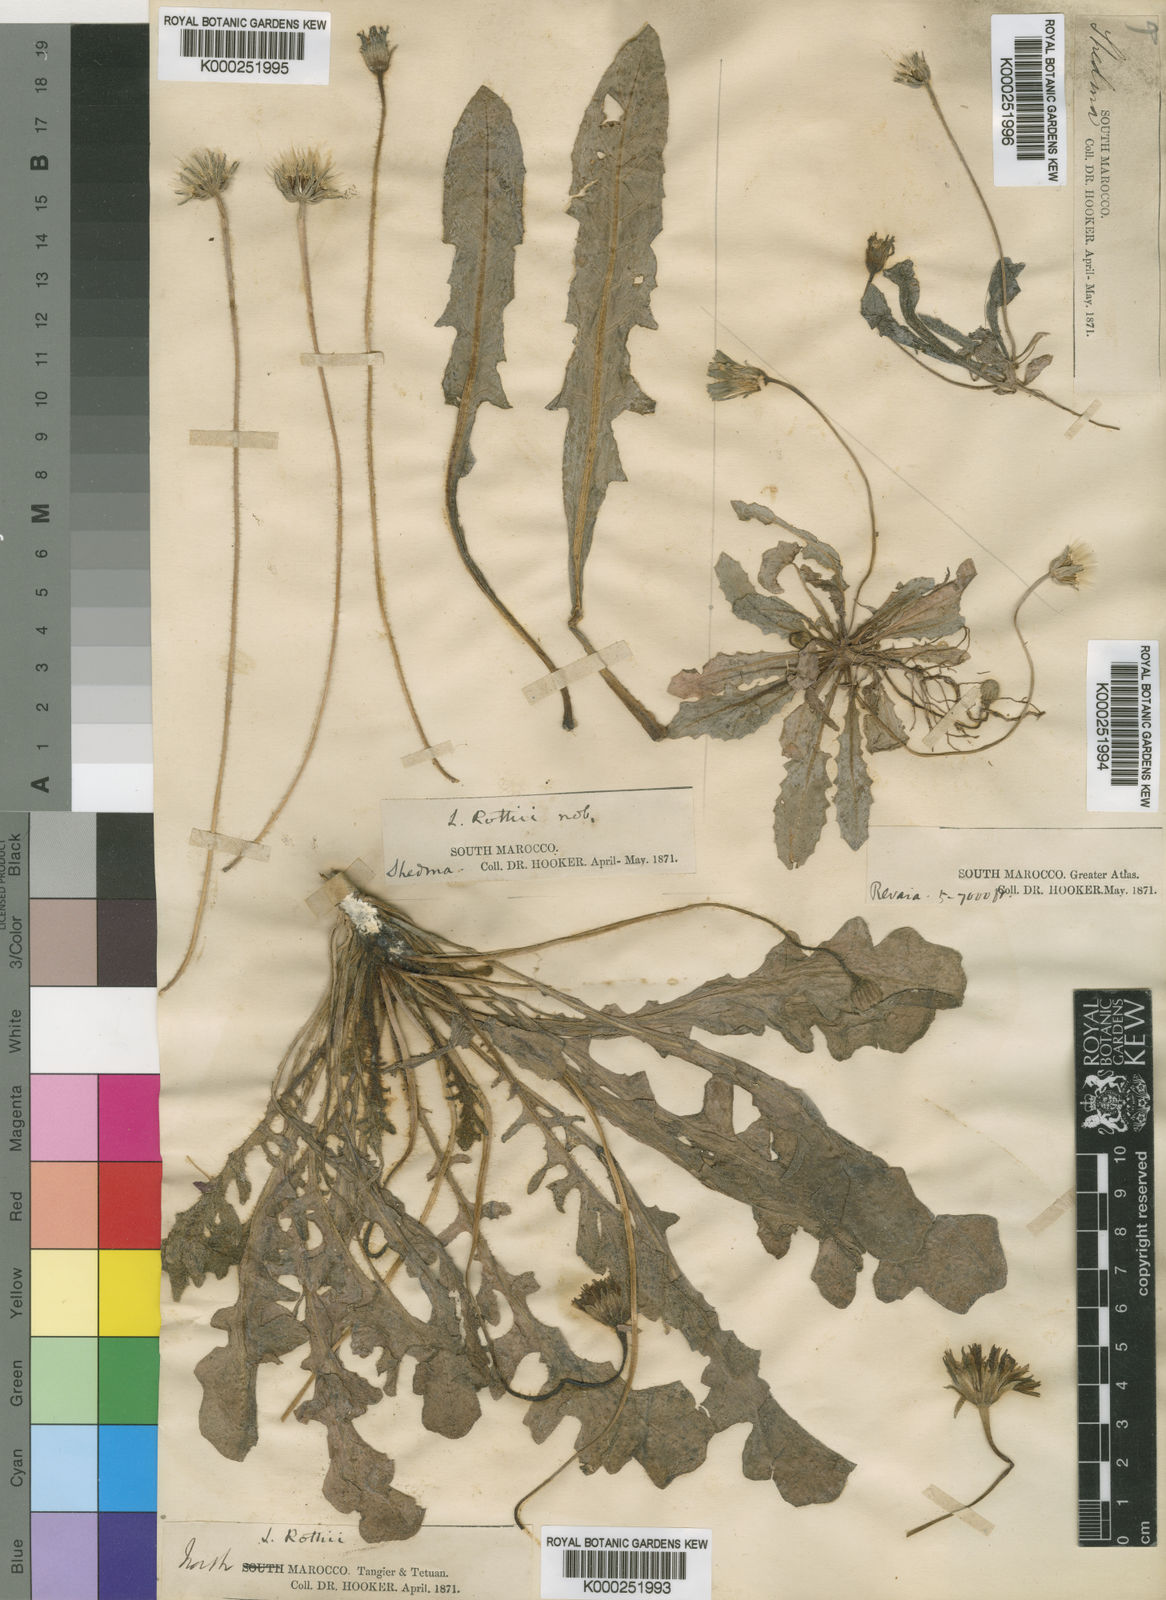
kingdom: Plantae
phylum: Tracheophyta
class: Magnoliopsida
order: Asterales
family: Asteraceae
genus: Thrincia
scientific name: Thrincia hispida
